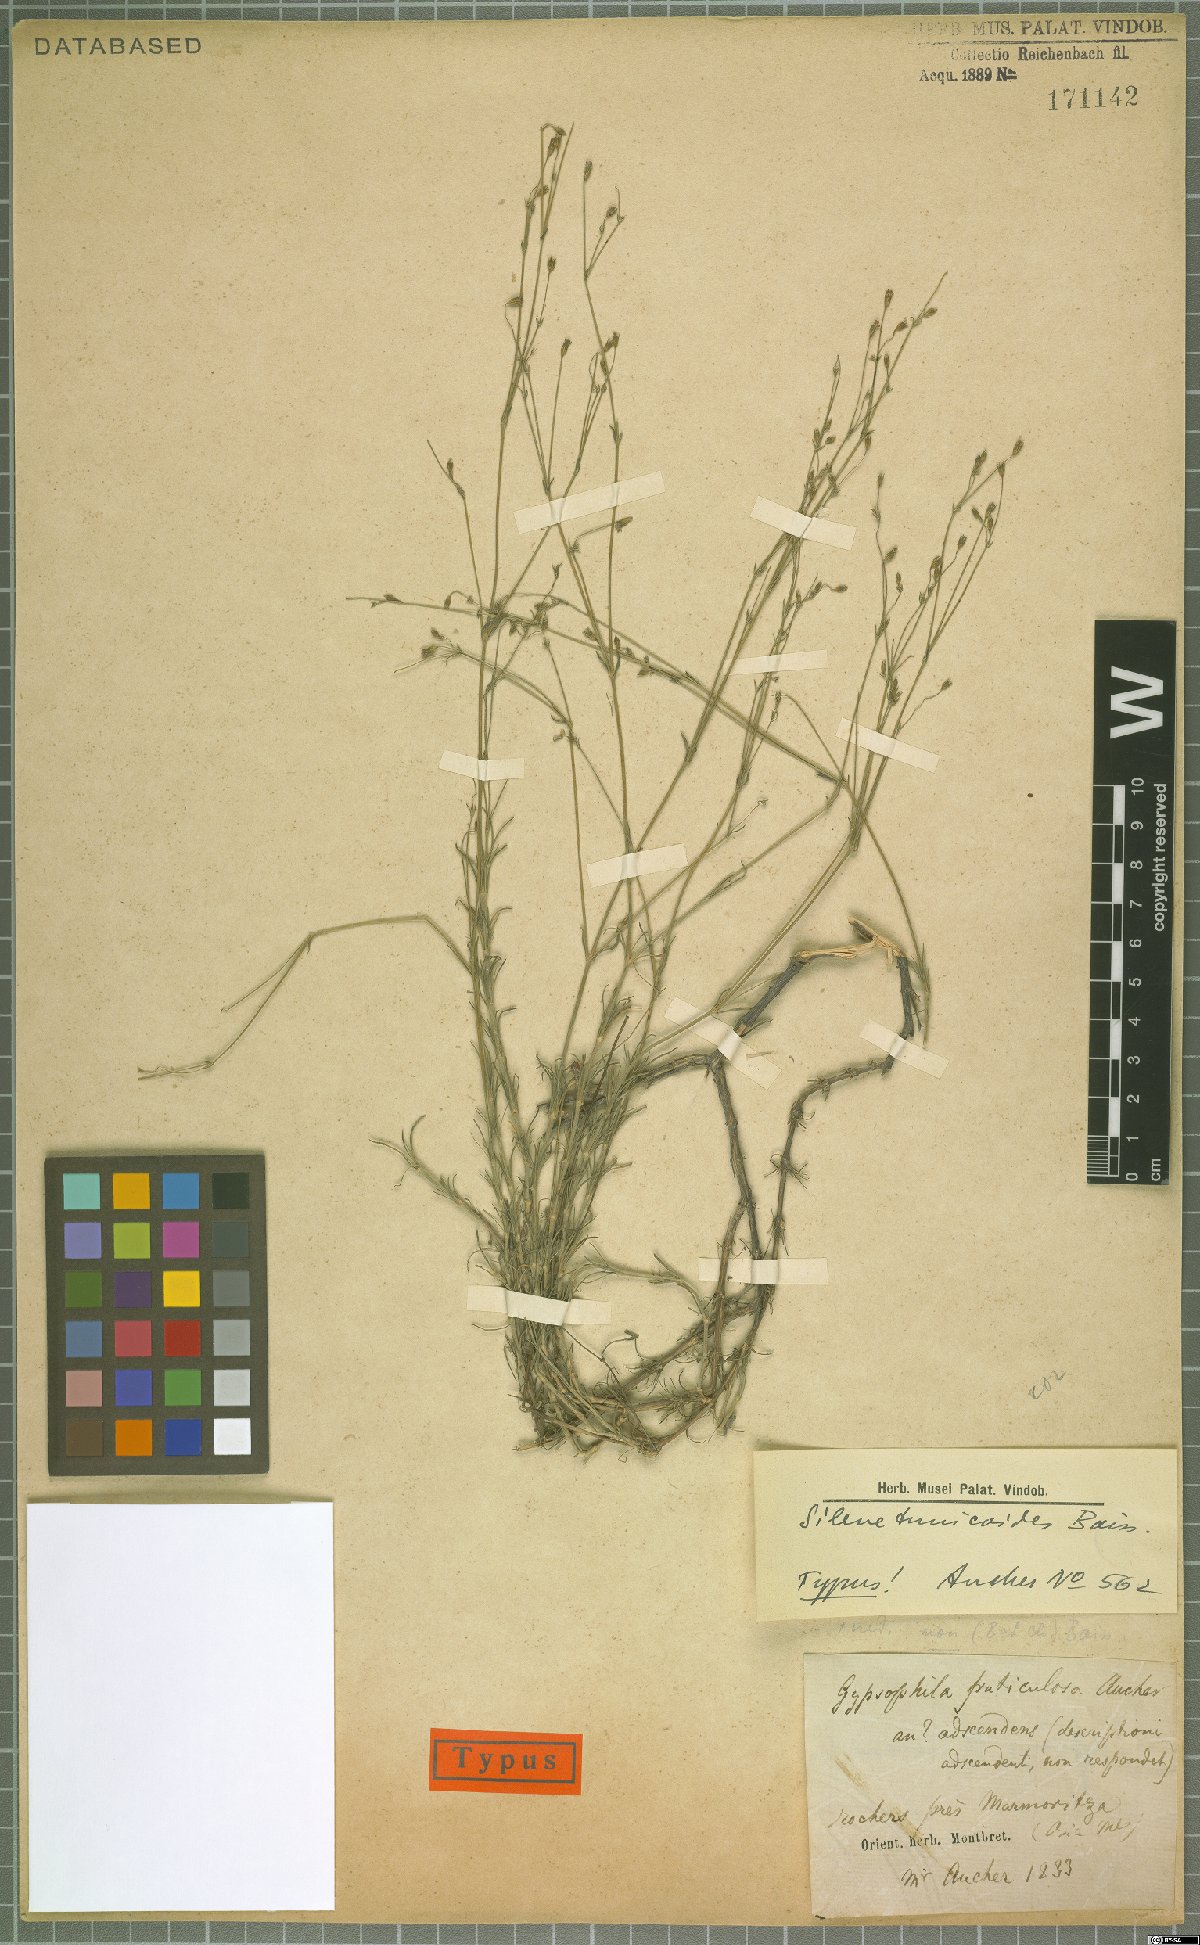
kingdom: Plantae
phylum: Tracheophyta
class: Magnoliopsida
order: Caryophyllales
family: Caryophyllaceae
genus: Silene
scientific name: Silene tunicoides
